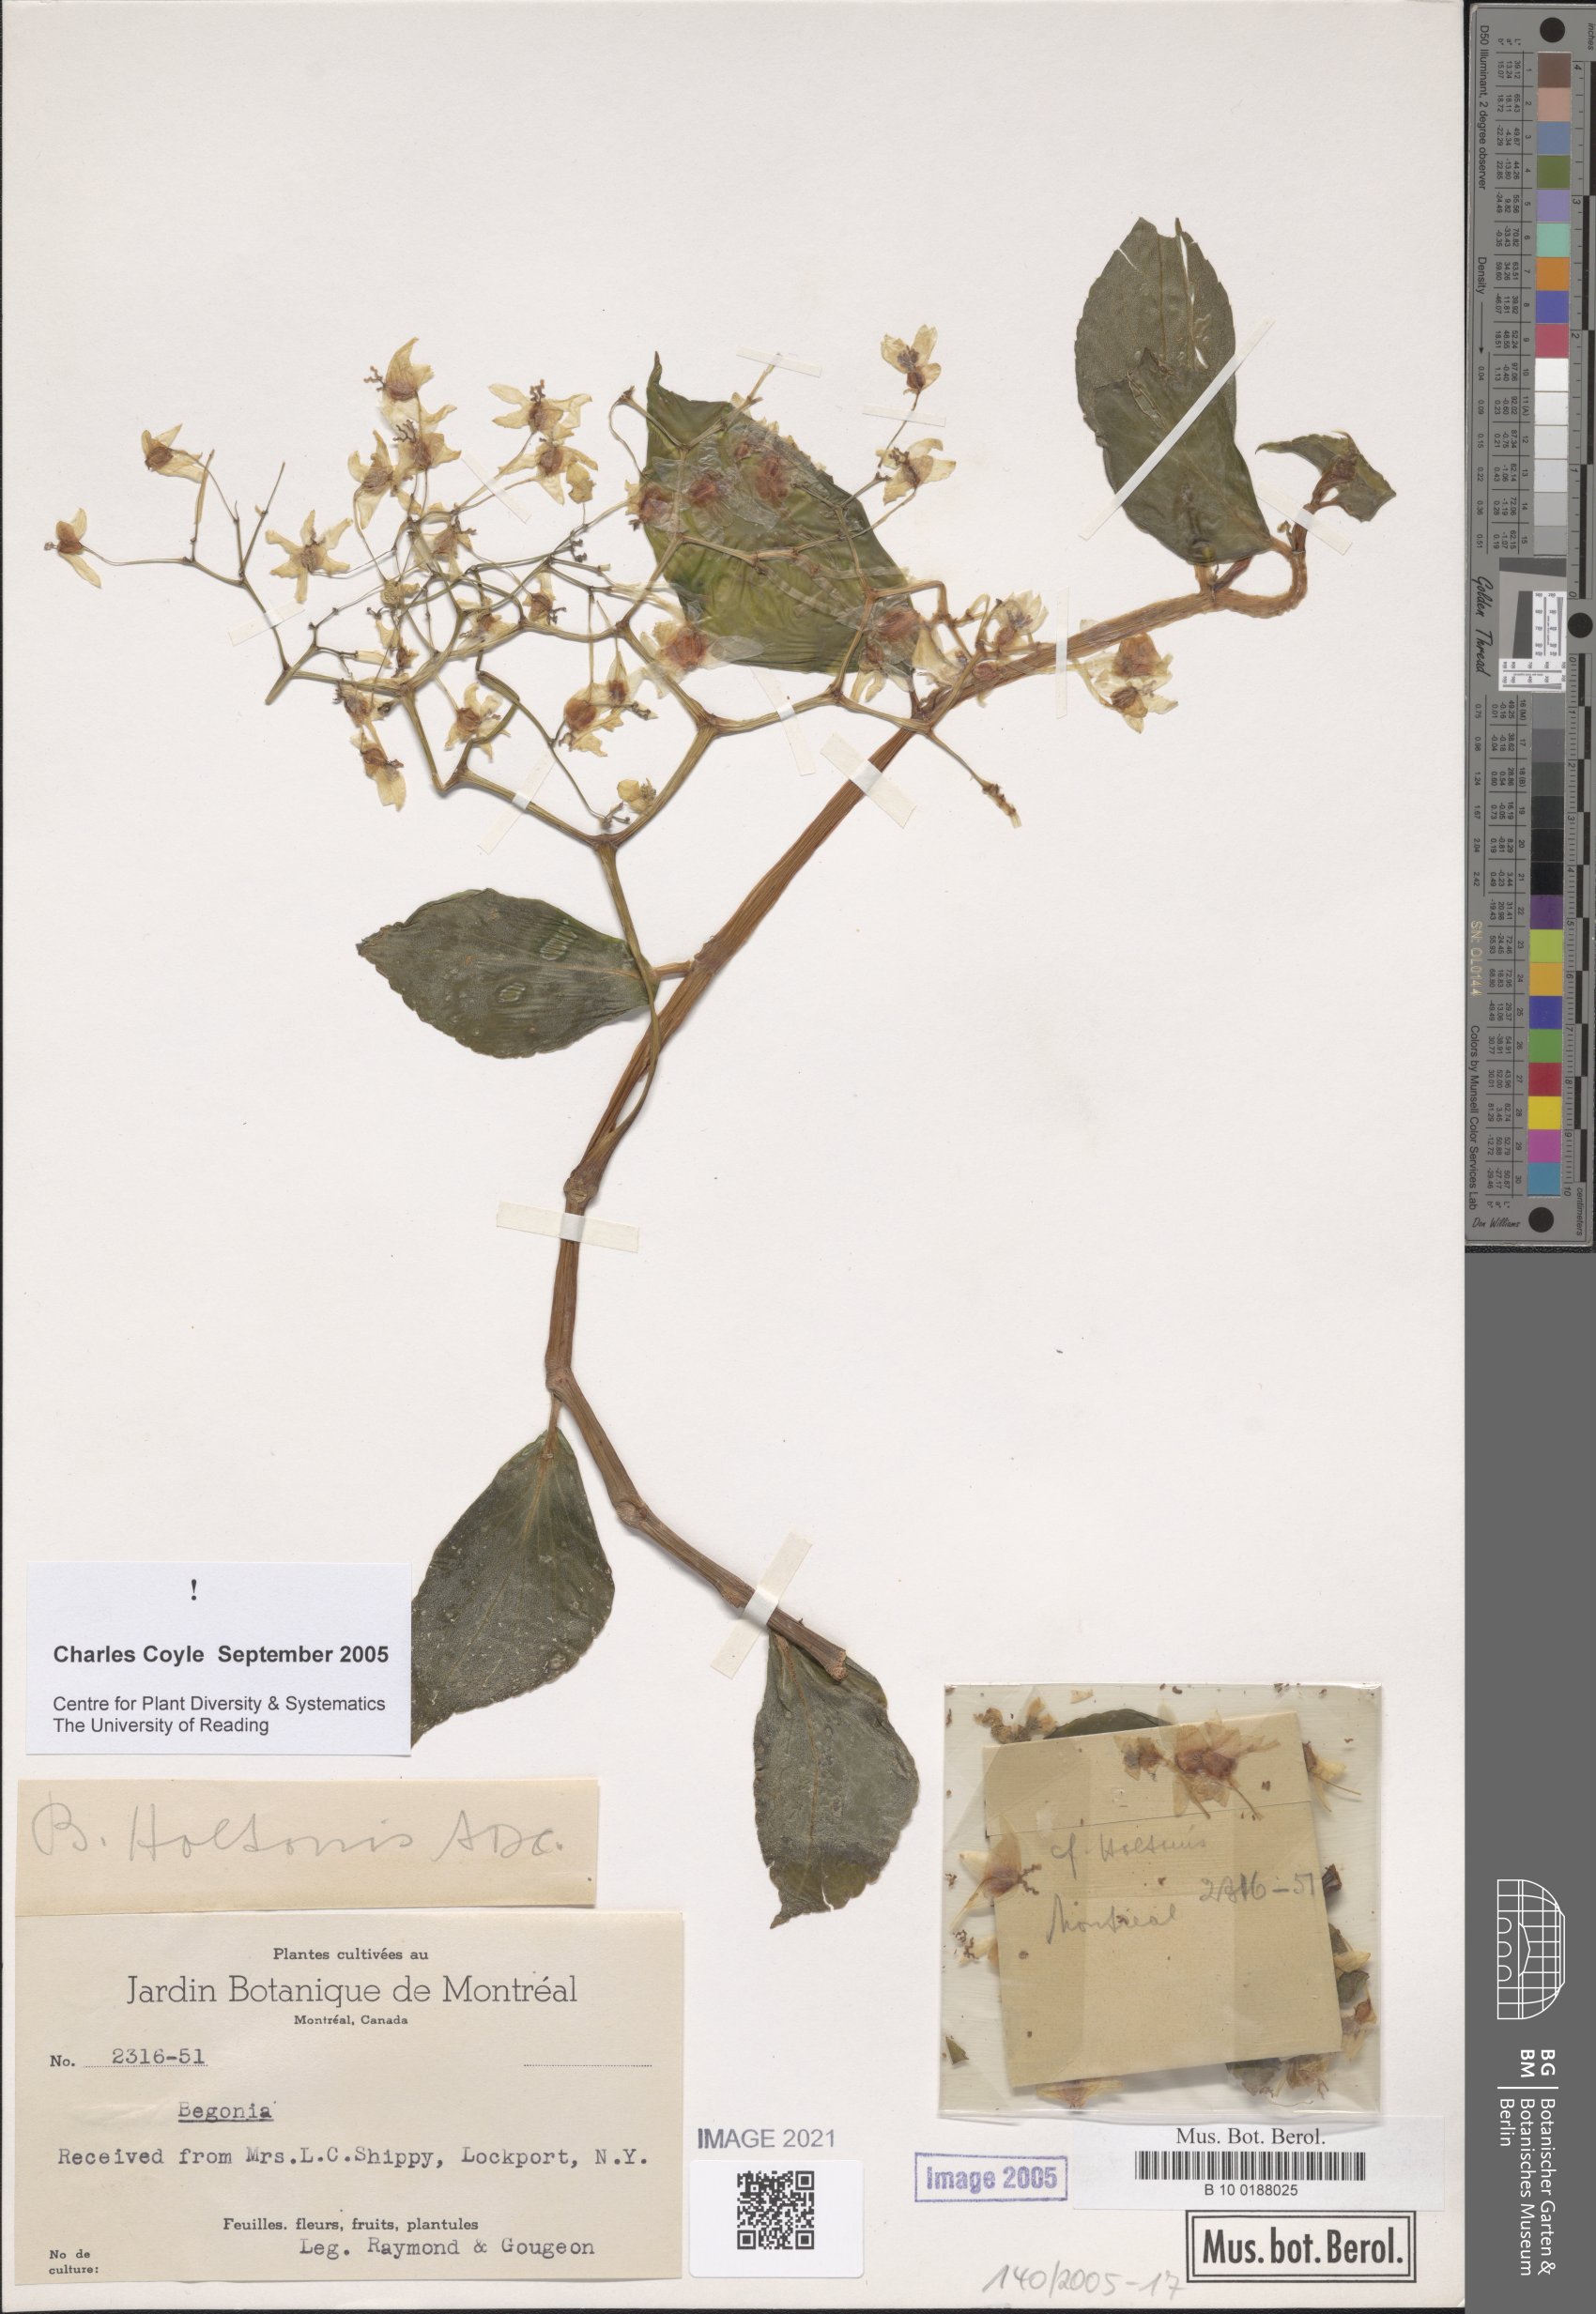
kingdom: Plantae
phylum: Tracheophyta
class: Magnoliopsida
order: Cucurbitales
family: Begoniaceae
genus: Begonia
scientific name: Begonia holtonis
